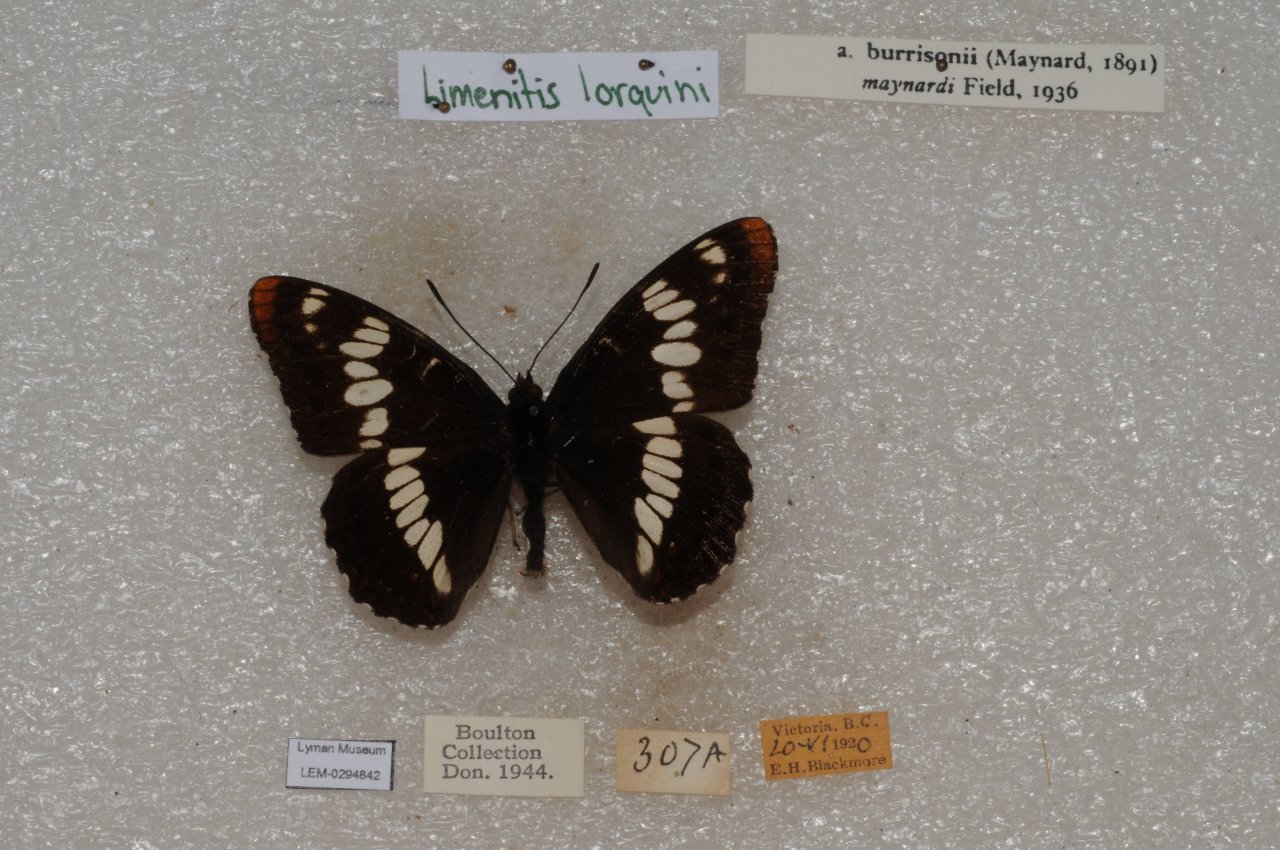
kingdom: Animalia
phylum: Arthropoda
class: Insecta
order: Lepidoptera
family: Nymphalidae
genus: Limenitis
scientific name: Limenitis lorquini
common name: Lorquin's Admiral
